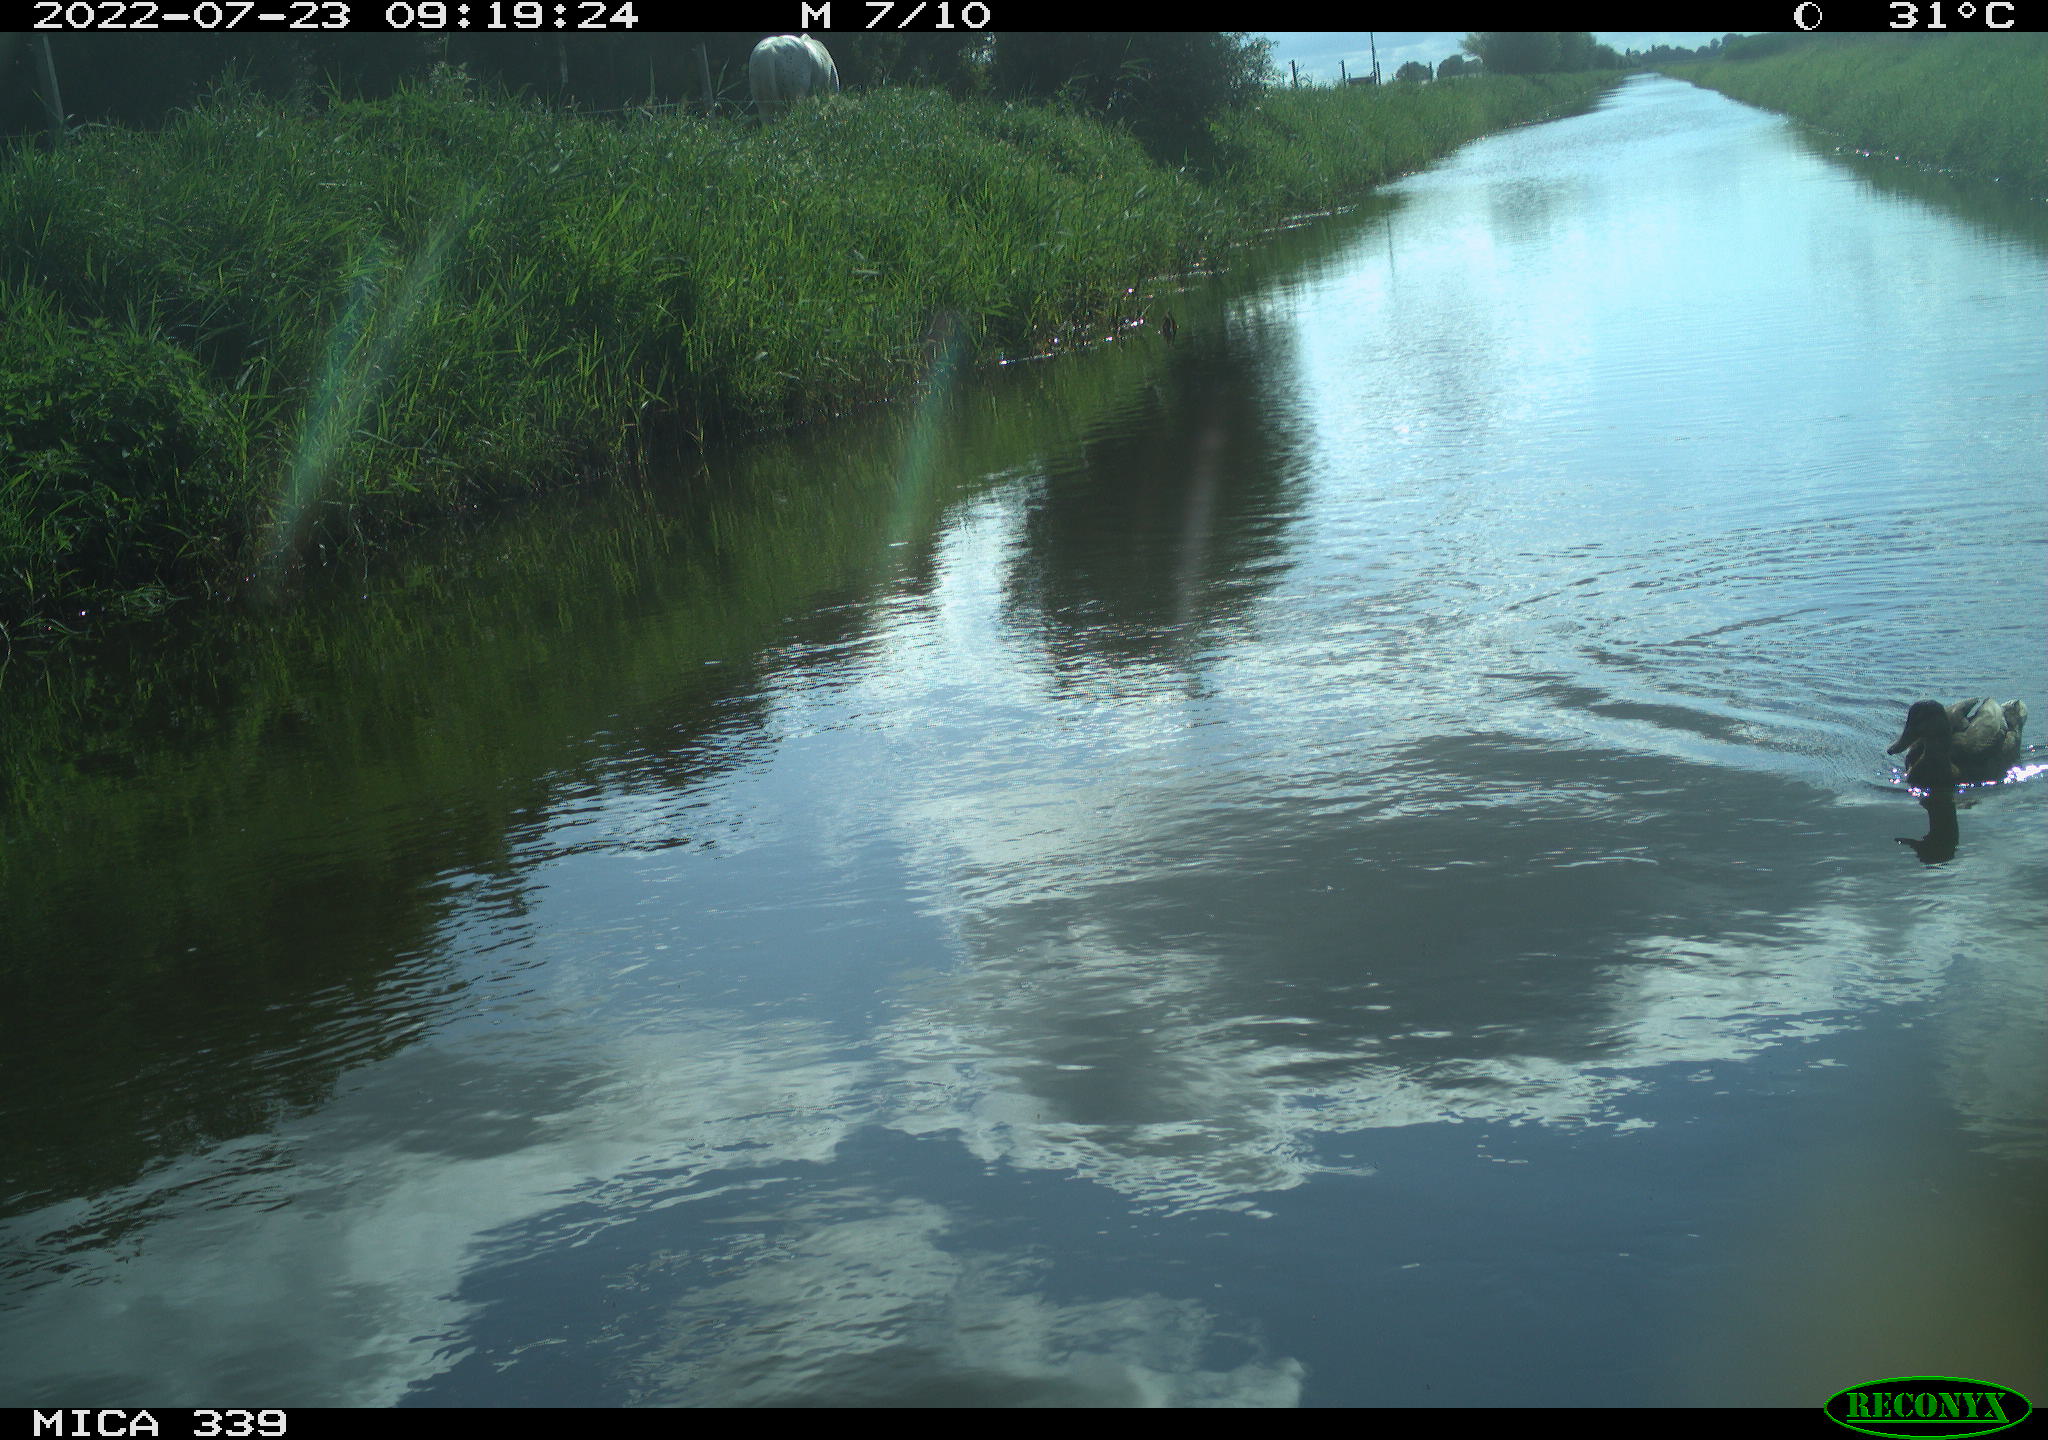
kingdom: Animalia
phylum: Chordata
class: Aves
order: Gruiformes
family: Rallidae
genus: Gallinula
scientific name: Gallinula chloropus
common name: Common moorhen
